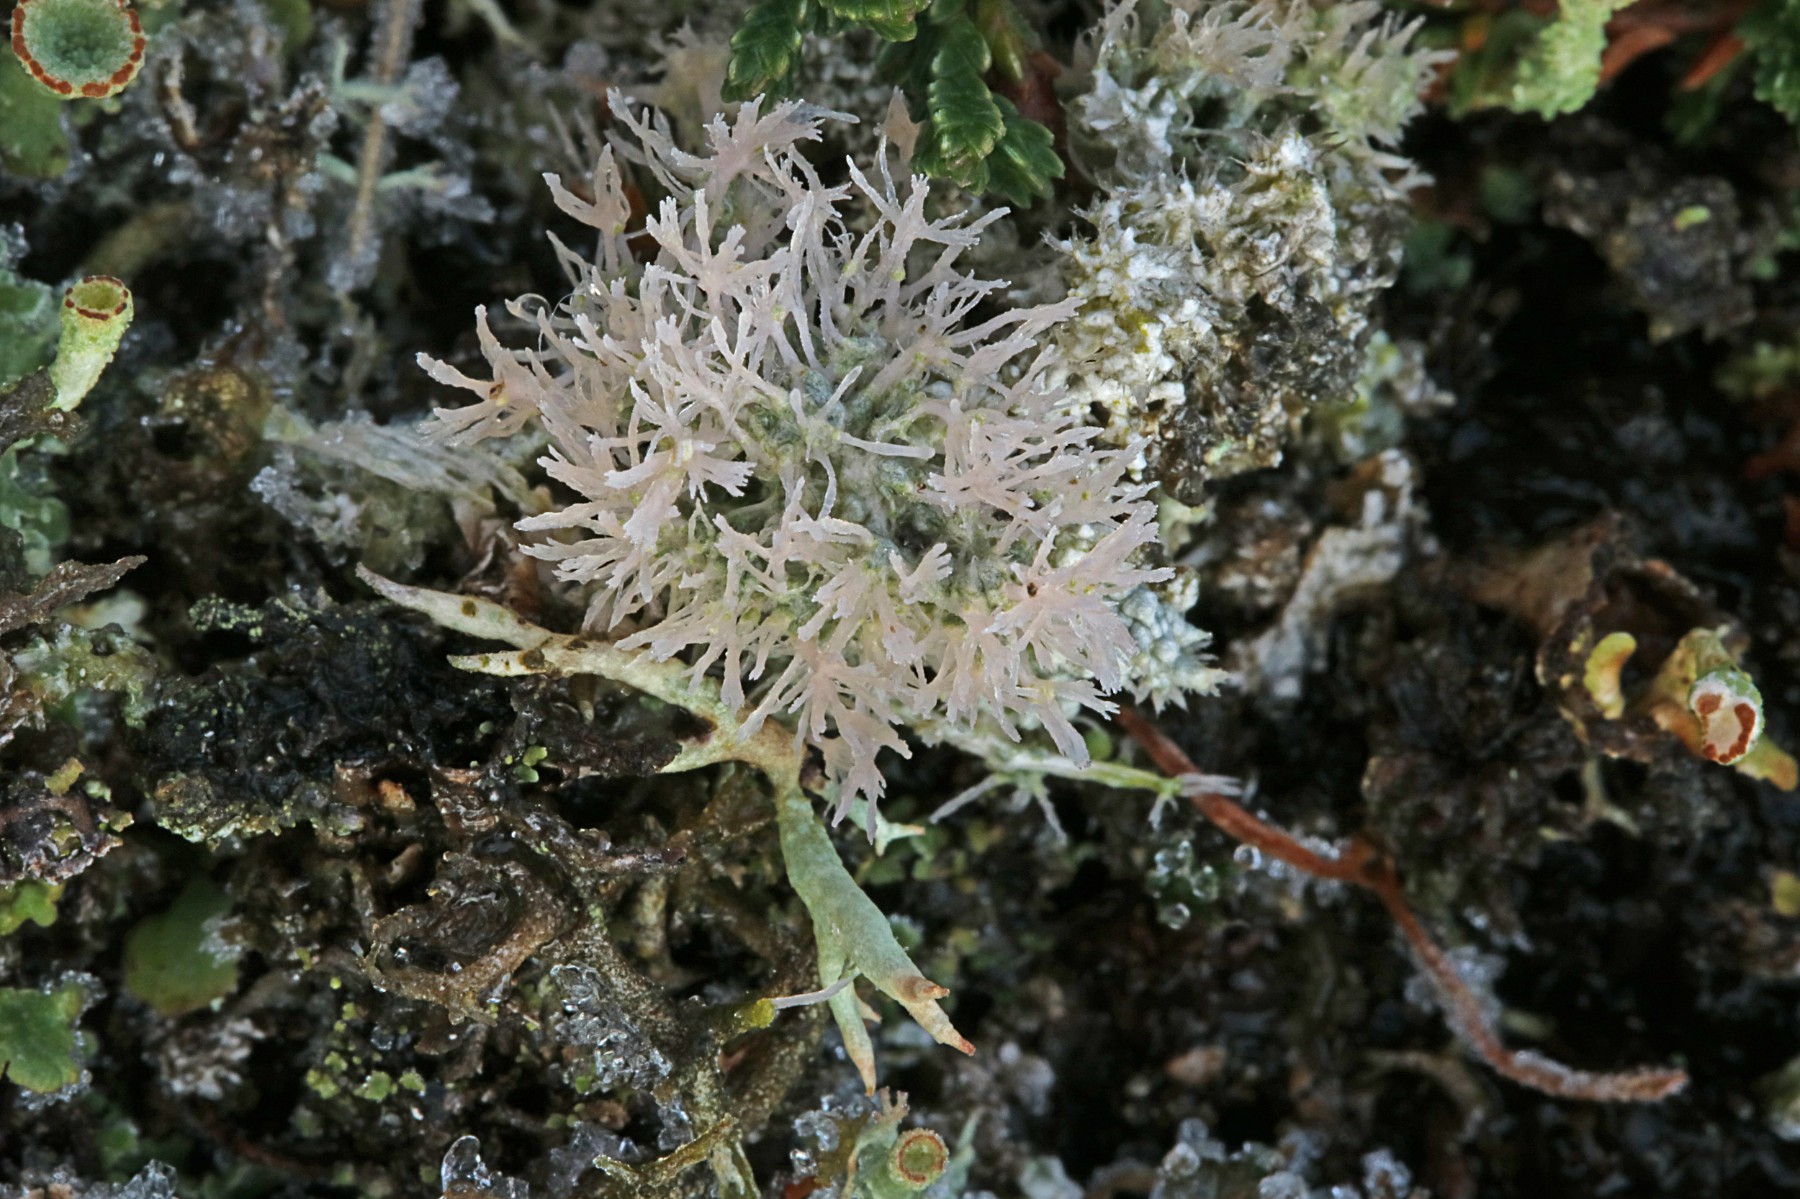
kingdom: Fungi
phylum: Ascomycota
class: Lecanoromycetes
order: Pertusariales
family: Ochrolechiaceae
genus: Ochrolechia
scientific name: Ochrolechia frigida
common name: fjeld-blegskivelav
